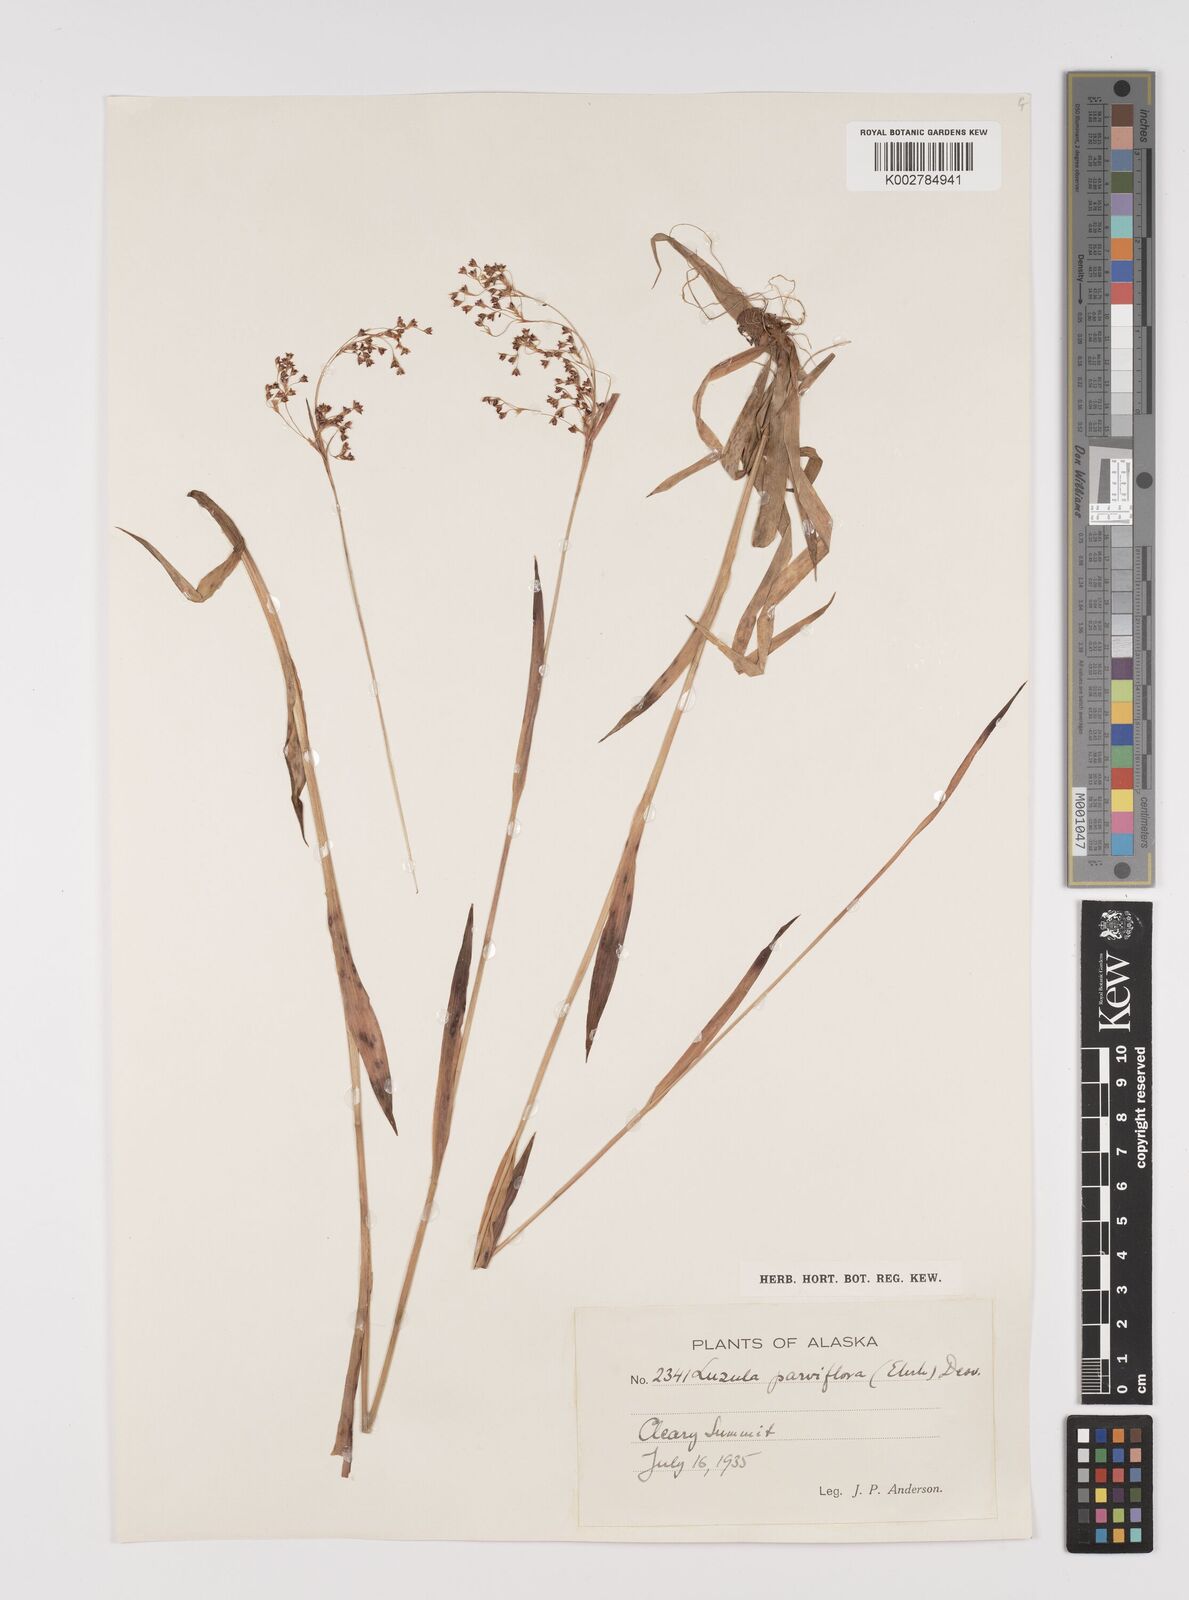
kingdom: Plantae
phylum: Tracheophyta
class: Liliopsida
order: Poales
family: Juncaceae
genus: Luzula
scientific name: Luzula parviflora
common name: Millet woodrush
